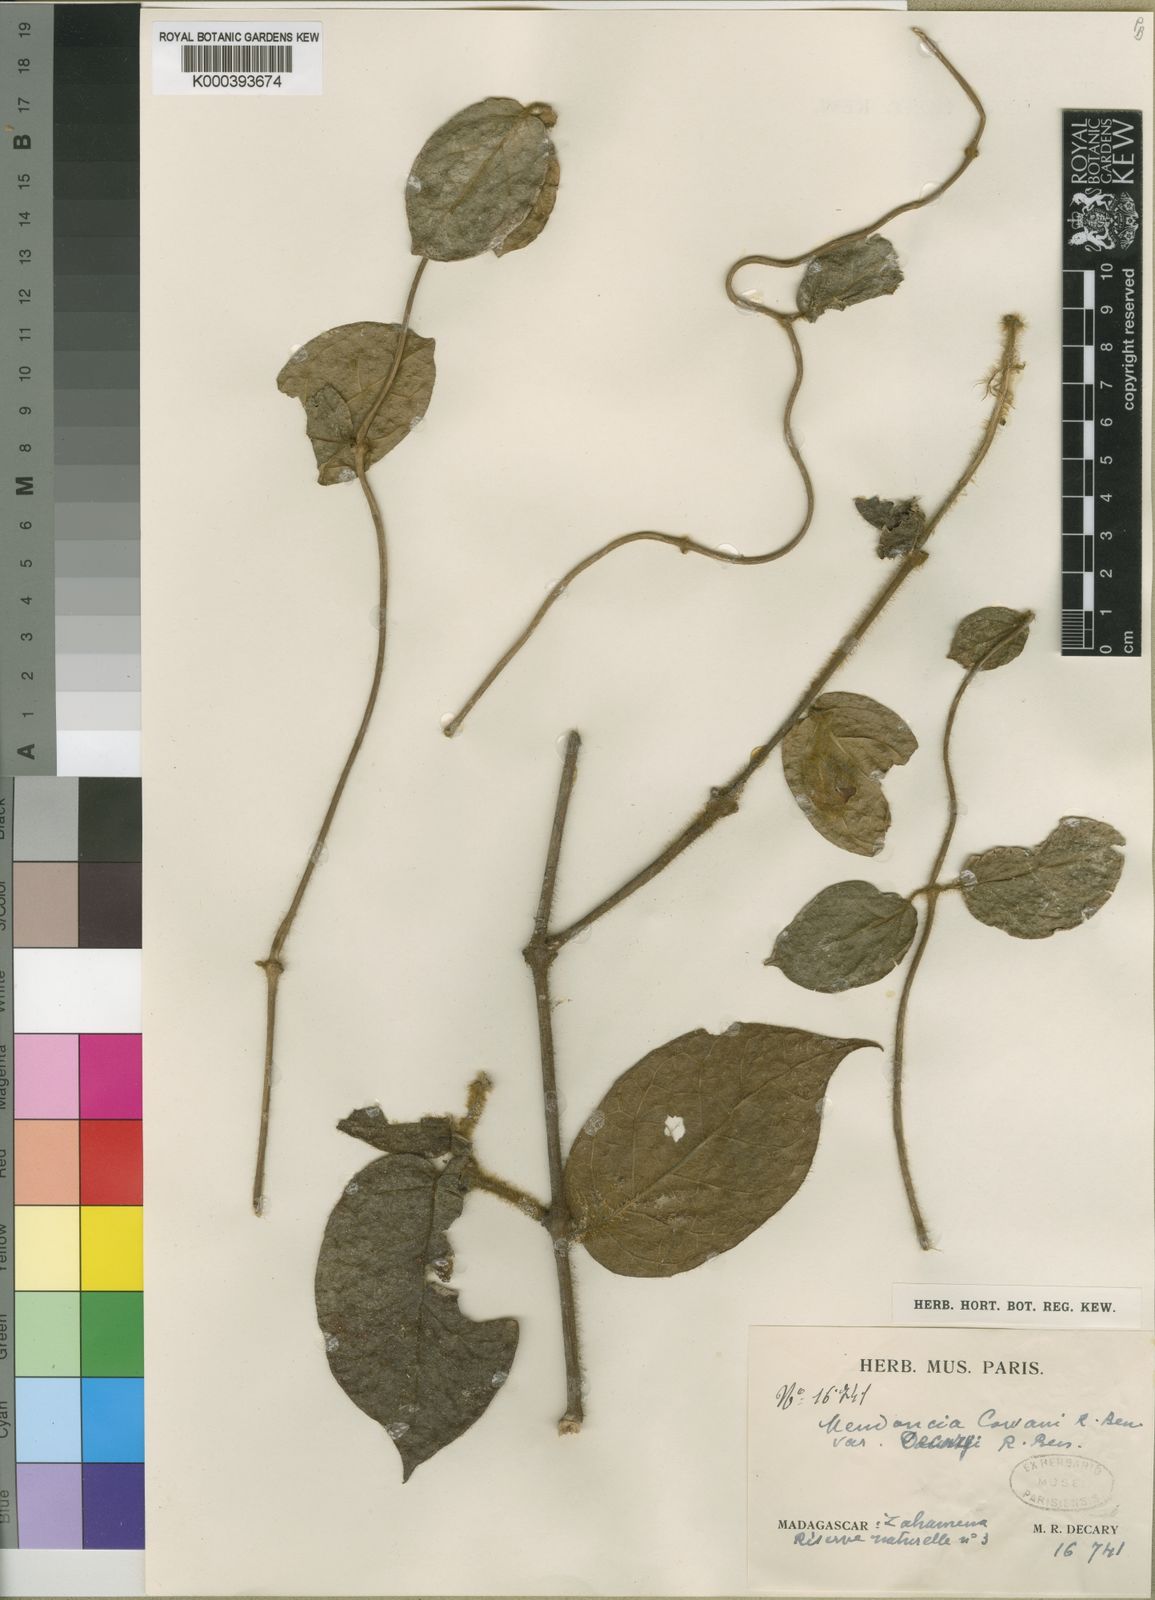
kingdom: Plantae
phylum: Tracheophyta
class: Magnoliopsida
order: Lamiales
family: Acanthaceae
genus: Mendoncia
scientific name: Mendoncia decaryi
